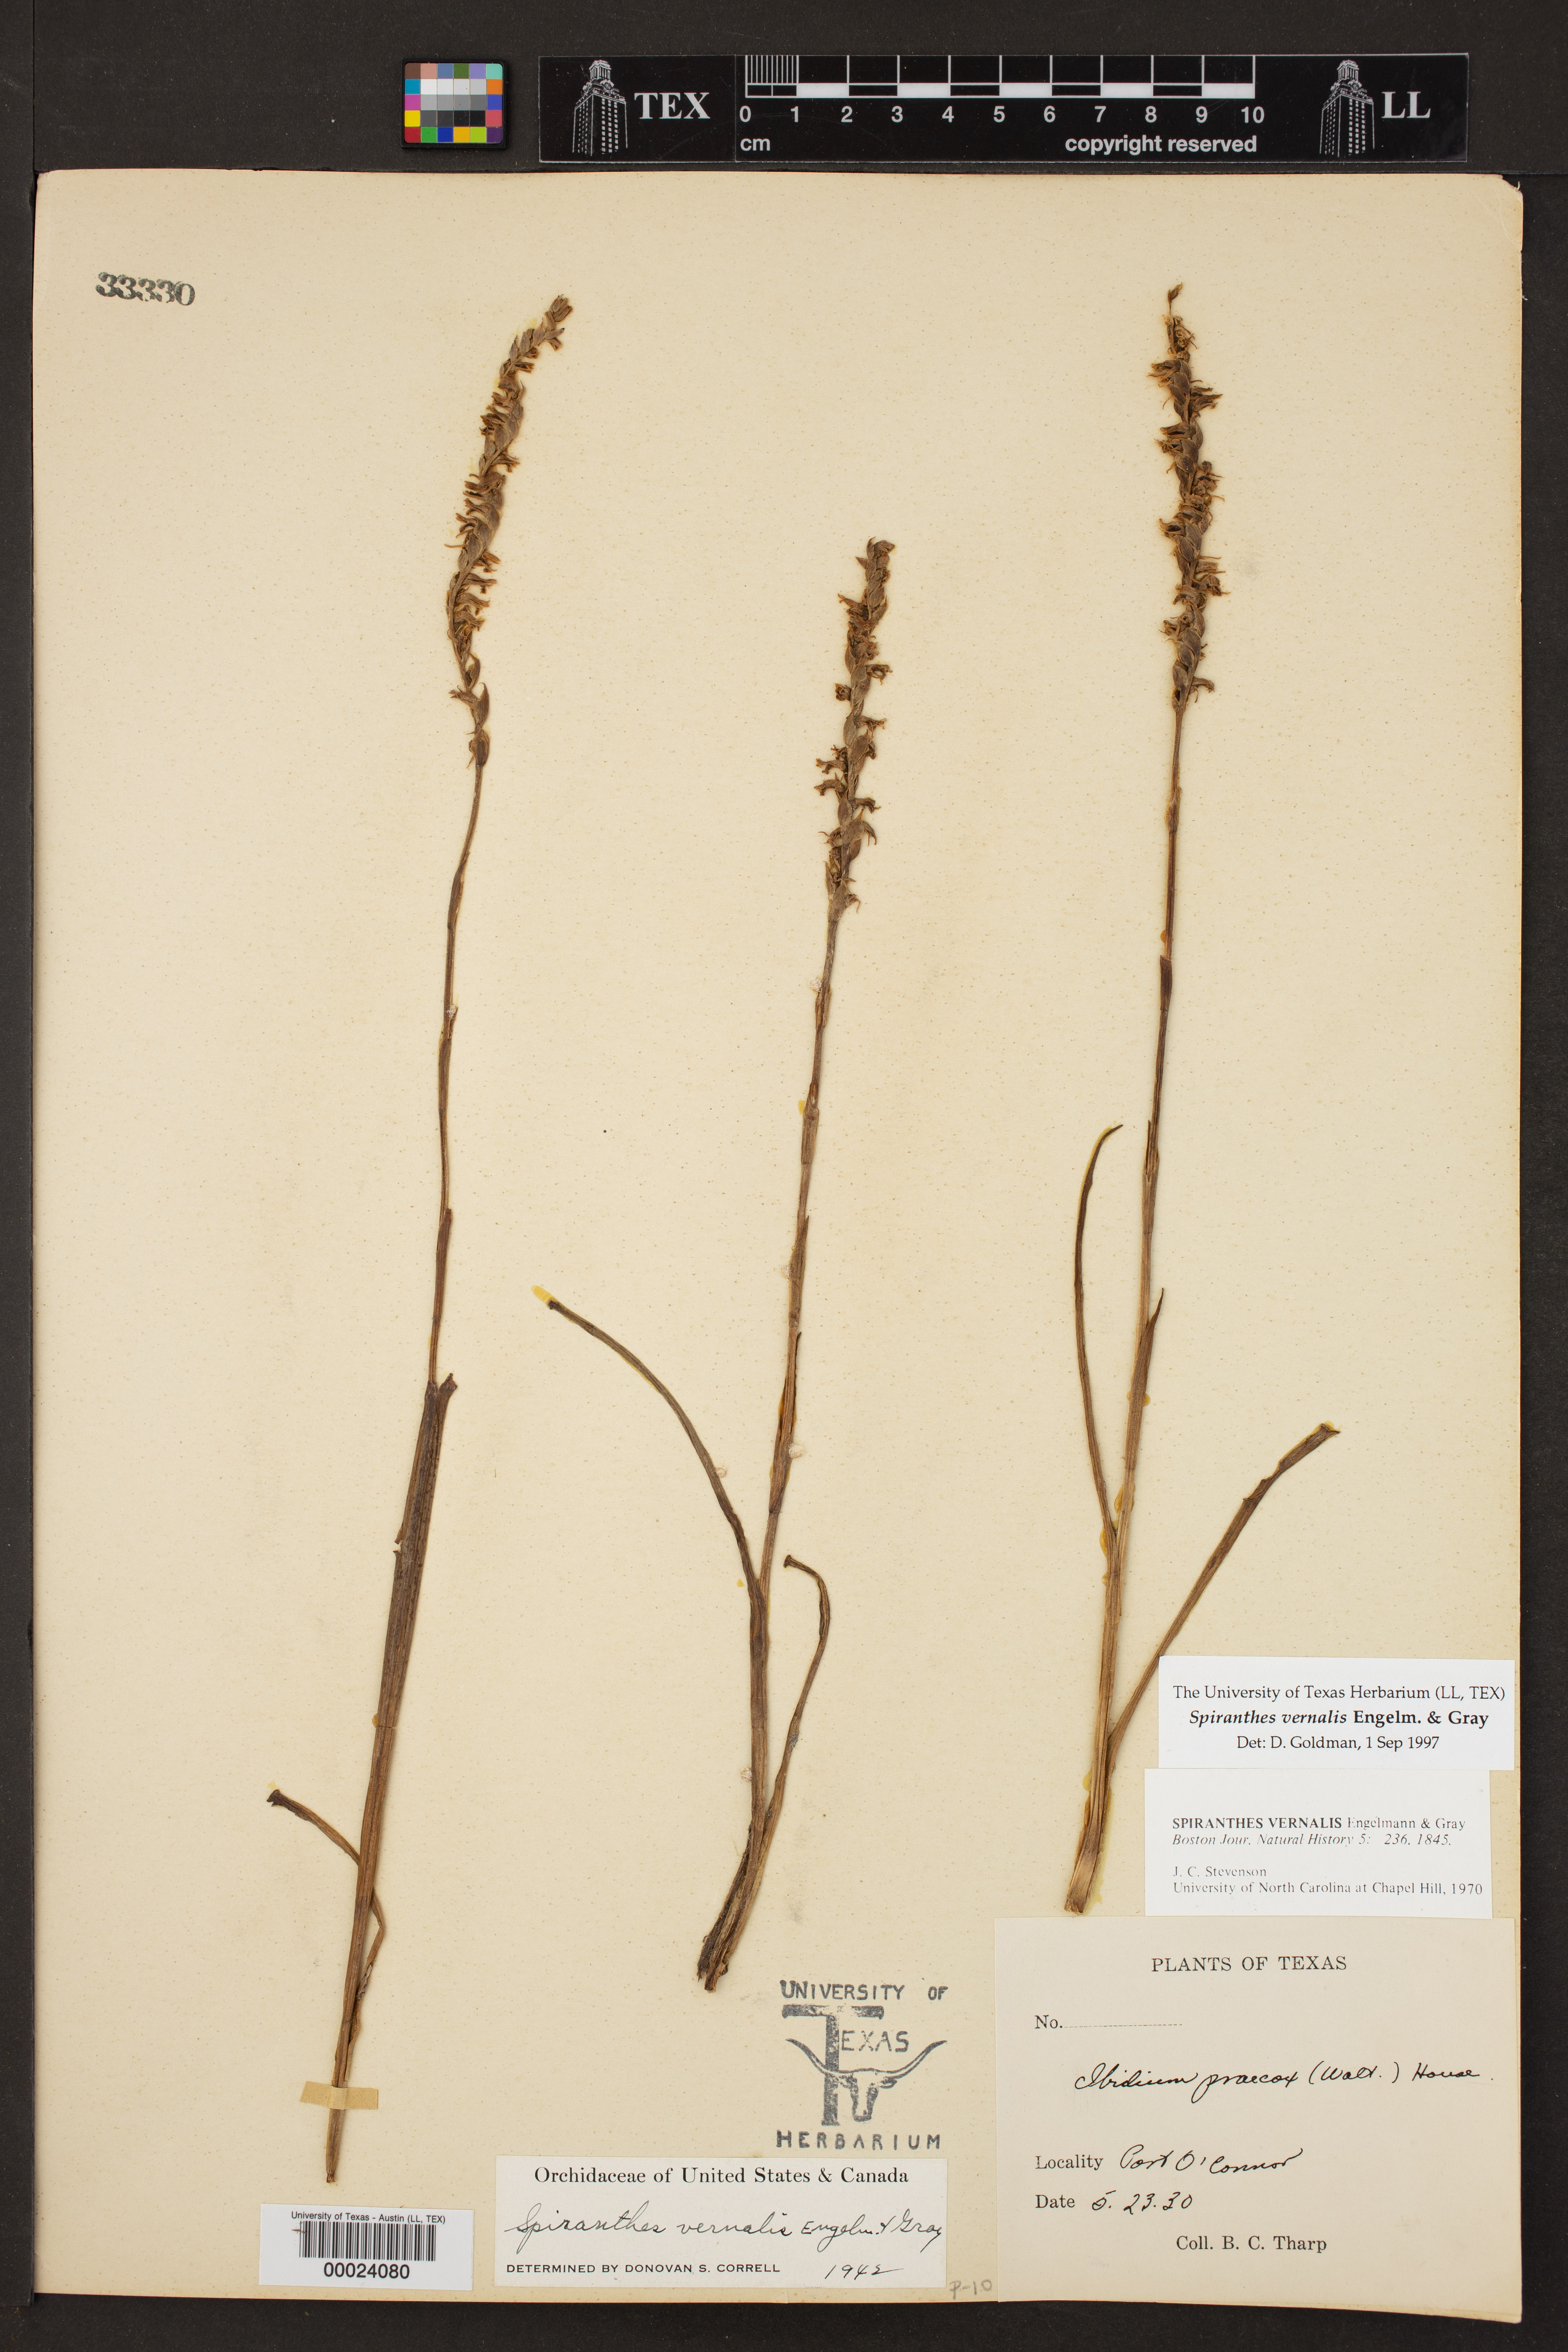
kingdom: Plantae
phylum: Tracheophyta
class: Liliopsida
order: Asparagales
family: Orchidaceae
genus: Spiranthes
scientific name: Spiranthes vernalis
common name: Spring ladies'-tresses
